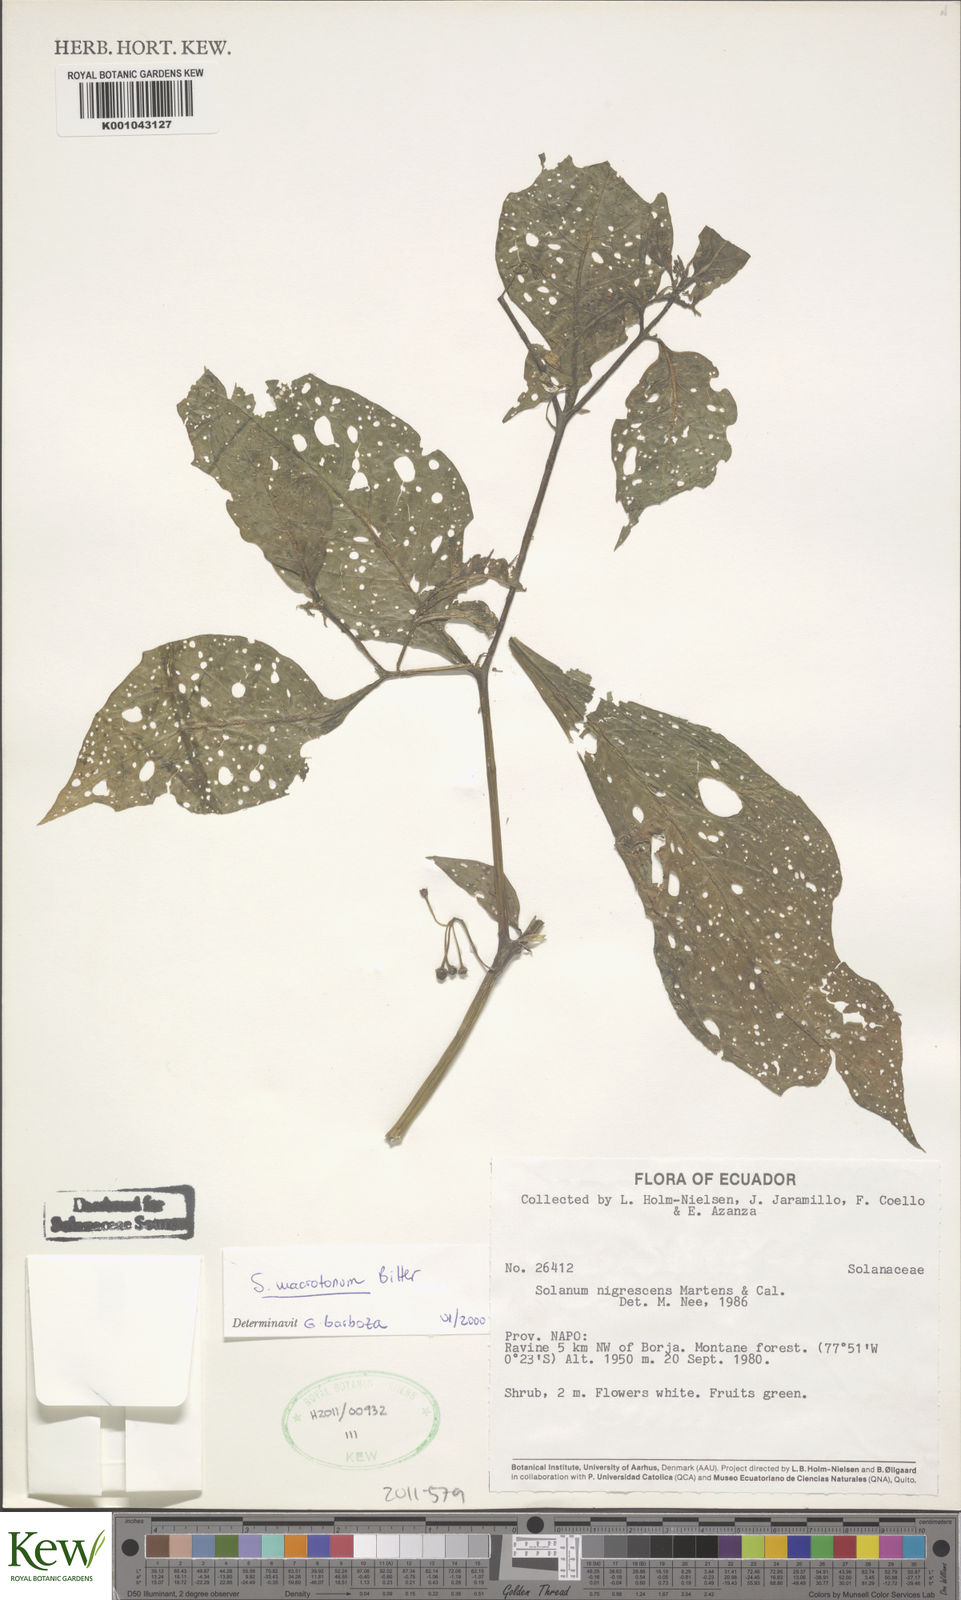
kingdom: Plantae
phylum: Tracheophyta
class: Magnoliopsida
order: Solanales
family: Solanaceae
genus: Solanum
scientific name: Solanum macrotonum
